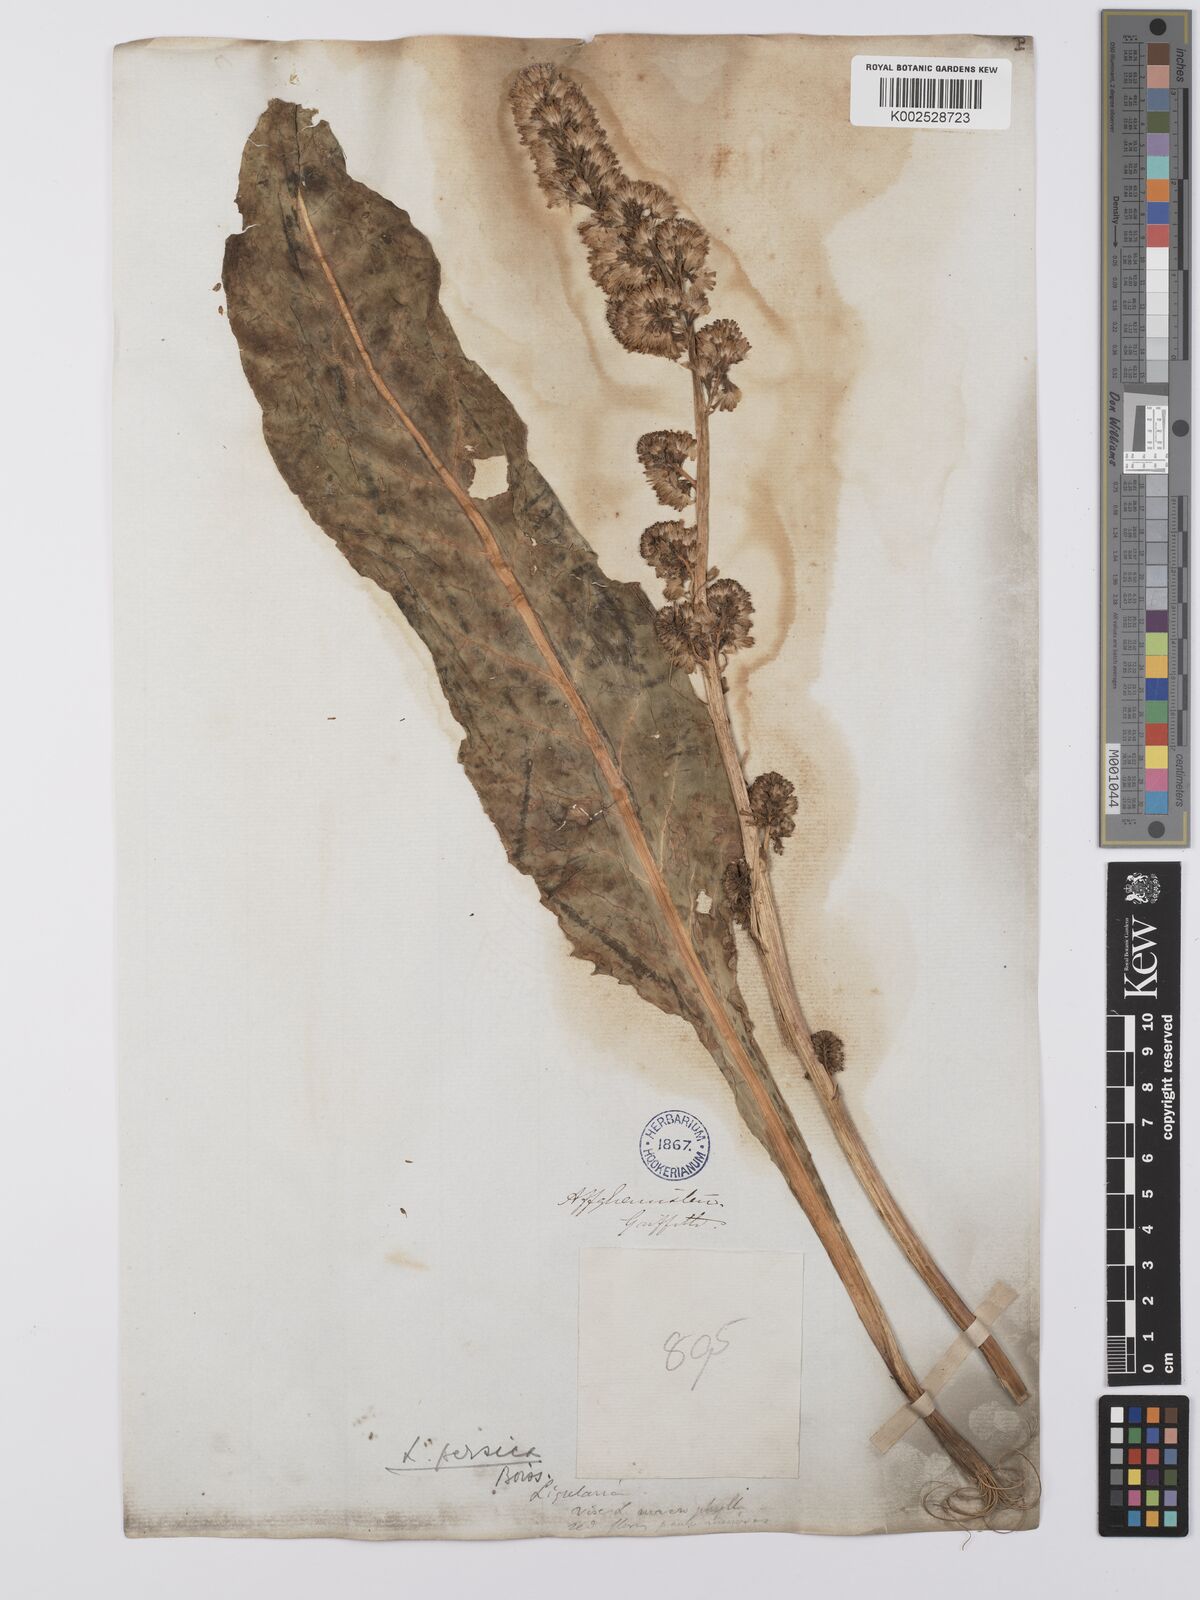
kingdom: Plantae
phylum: Tracheophyta
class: Magnoliopsida
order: Asterales
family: Asteraceae
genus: Ligularia
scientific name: Ligularia afghanica
